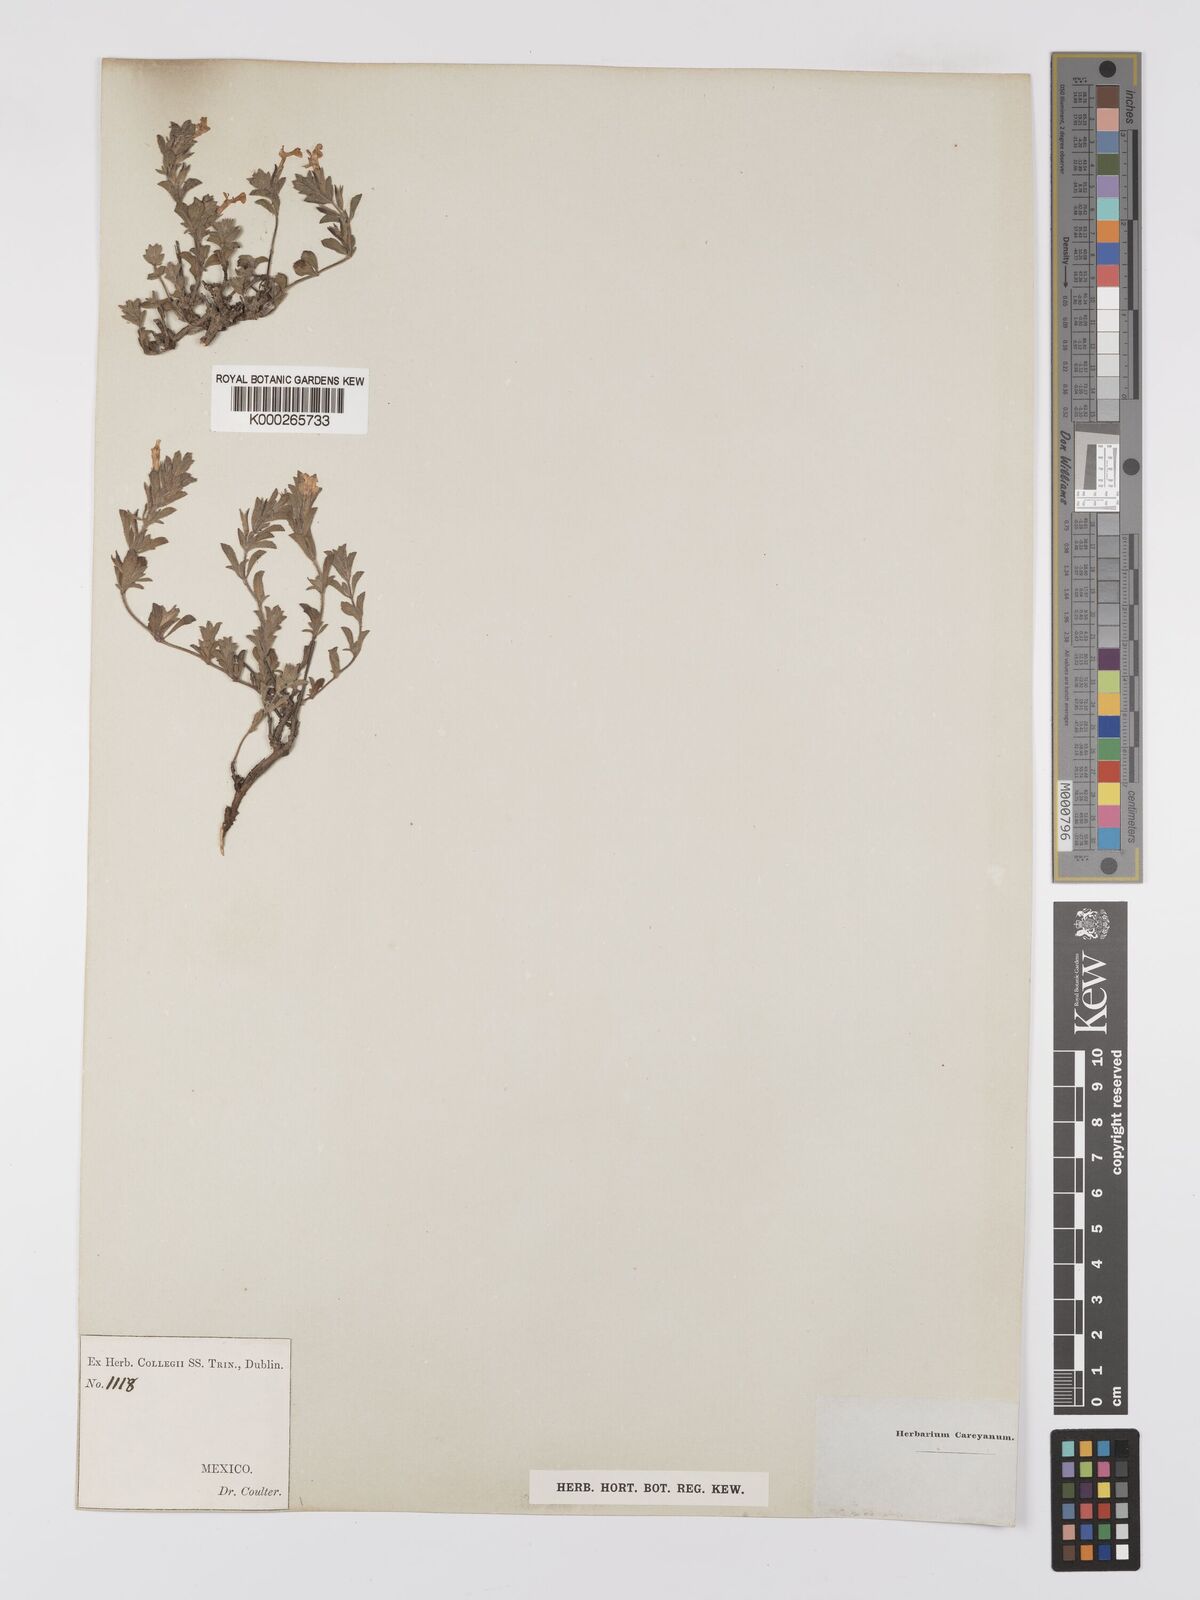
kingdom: Plantae
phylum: Tracheophyta
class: Magnoliopsida
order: Lamiales
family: Lamiaceae
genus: Salvia
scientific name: Salvia
